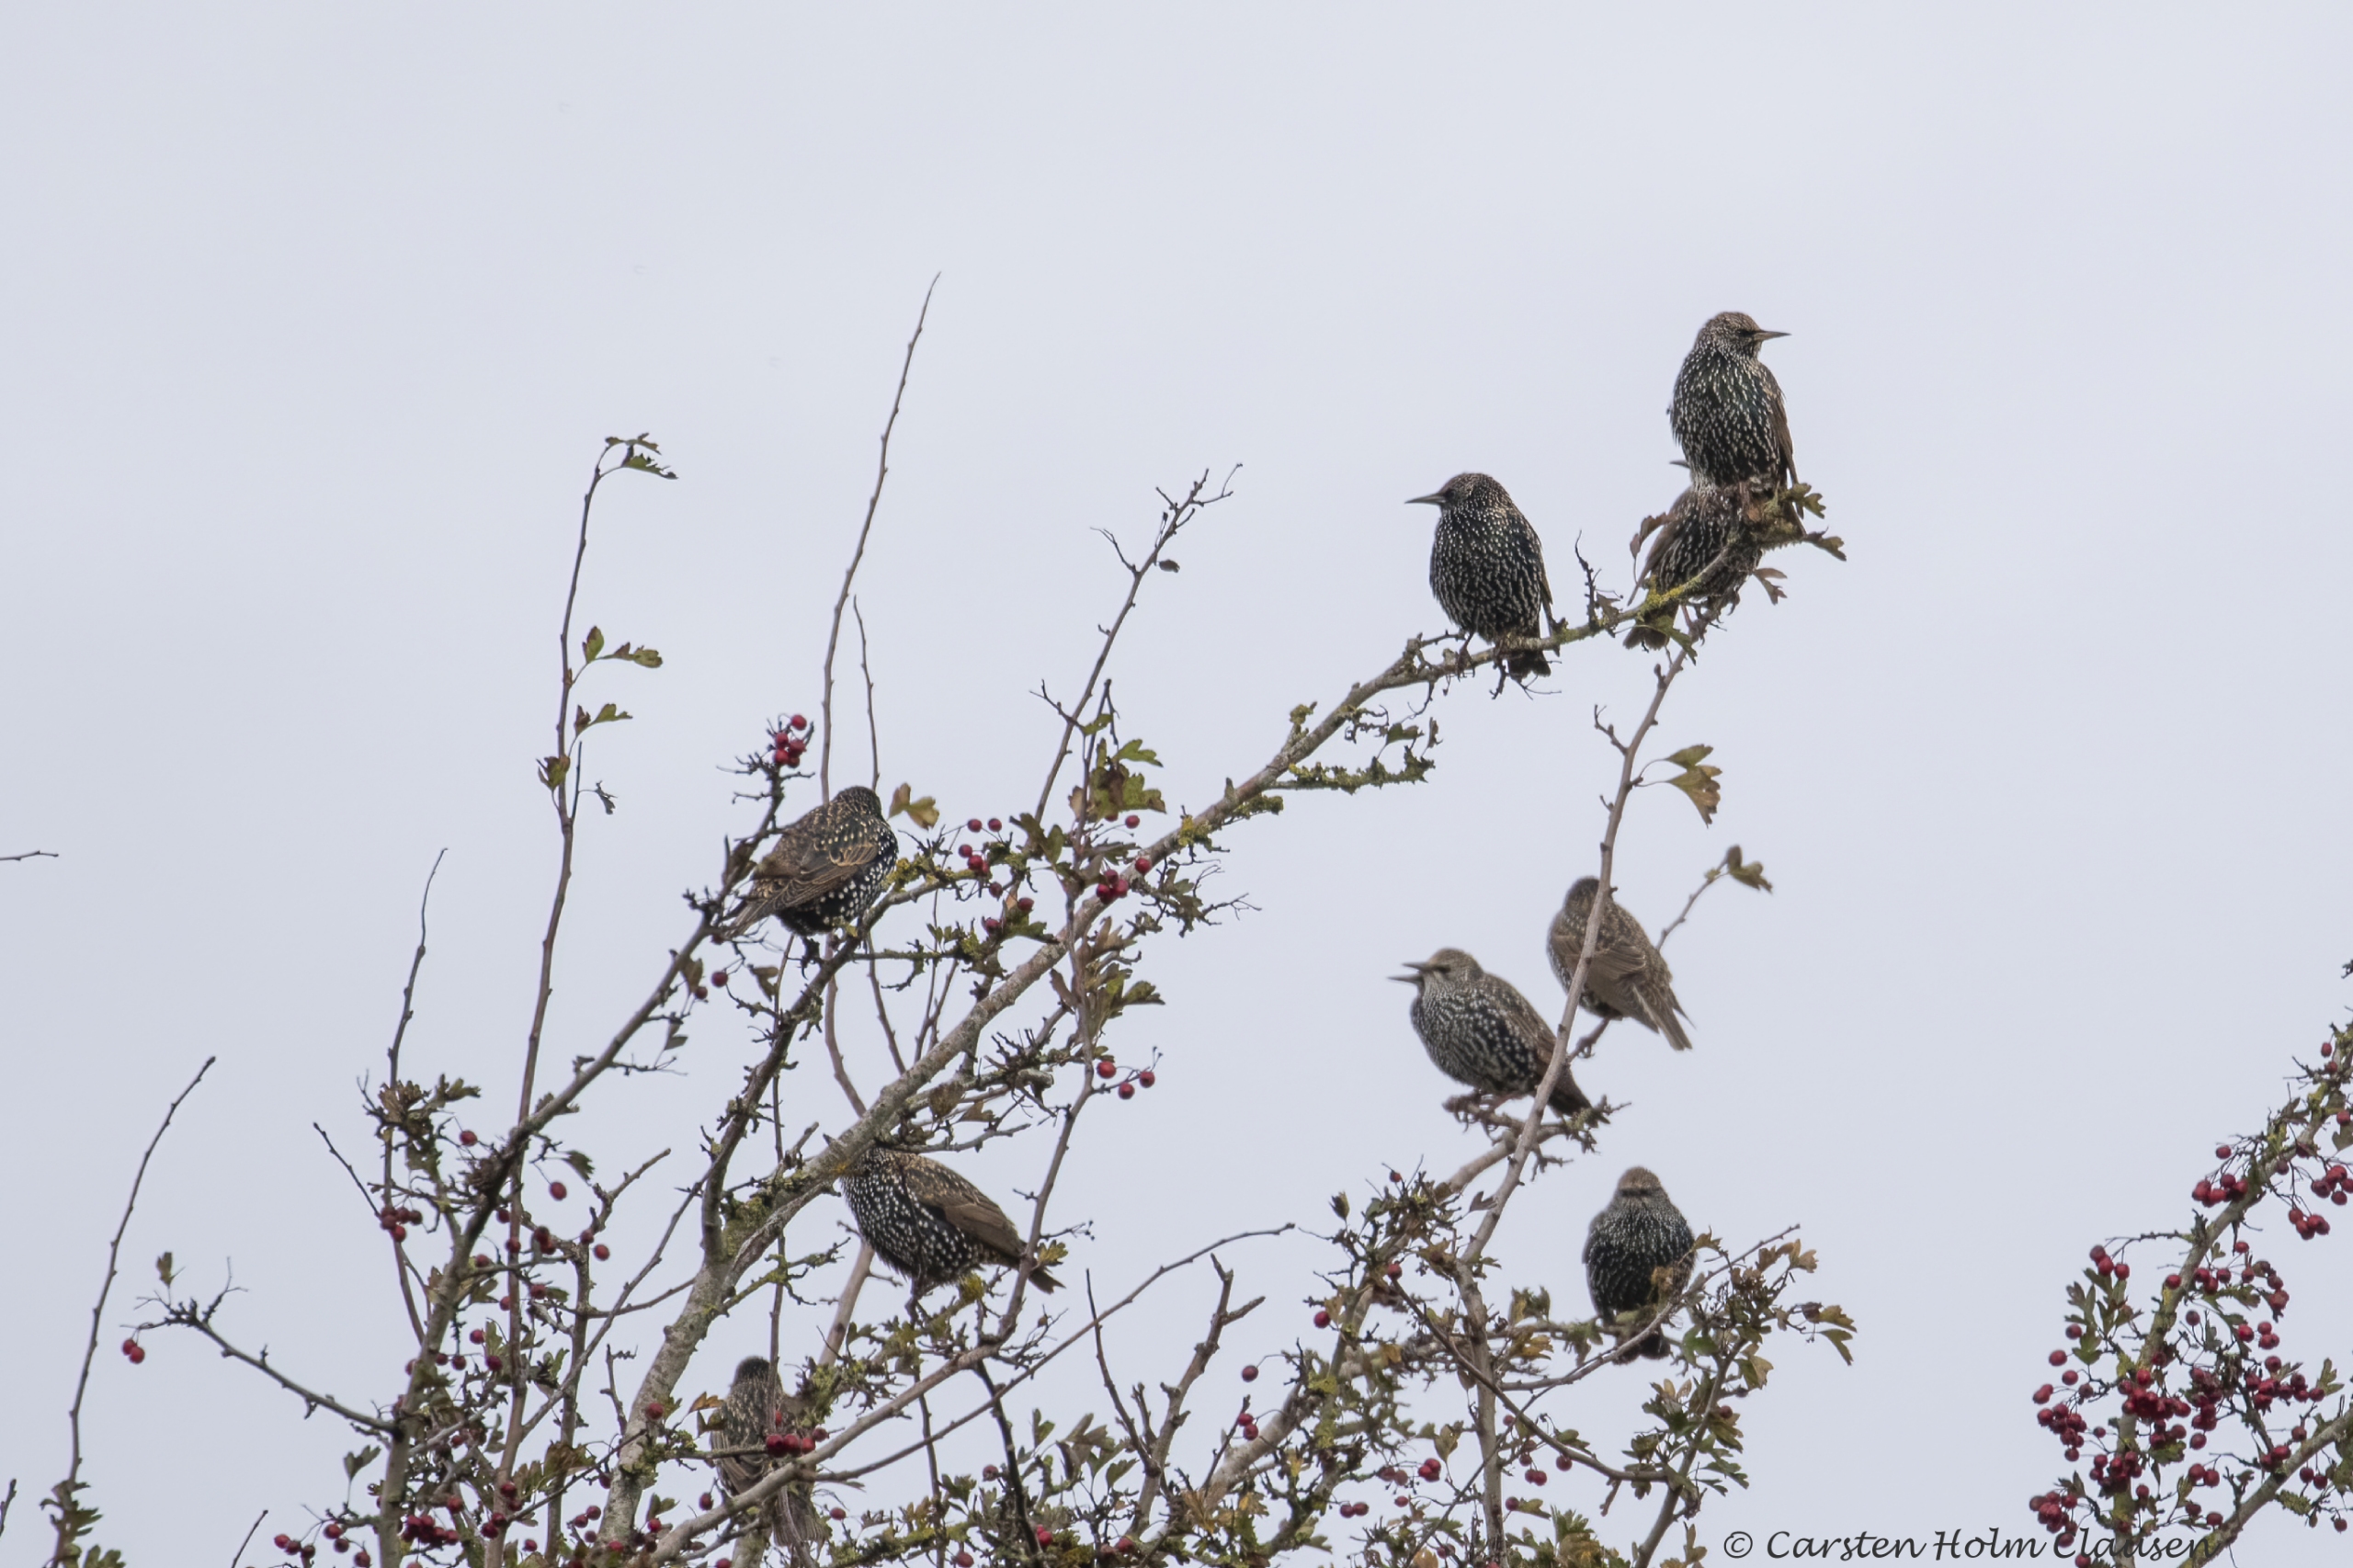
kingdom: Animalia
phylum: Chordata
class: Aves
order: Passeriformes
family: Sturnidae
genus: Sturnus
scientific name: Sturnus vulgaris
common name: Stær
